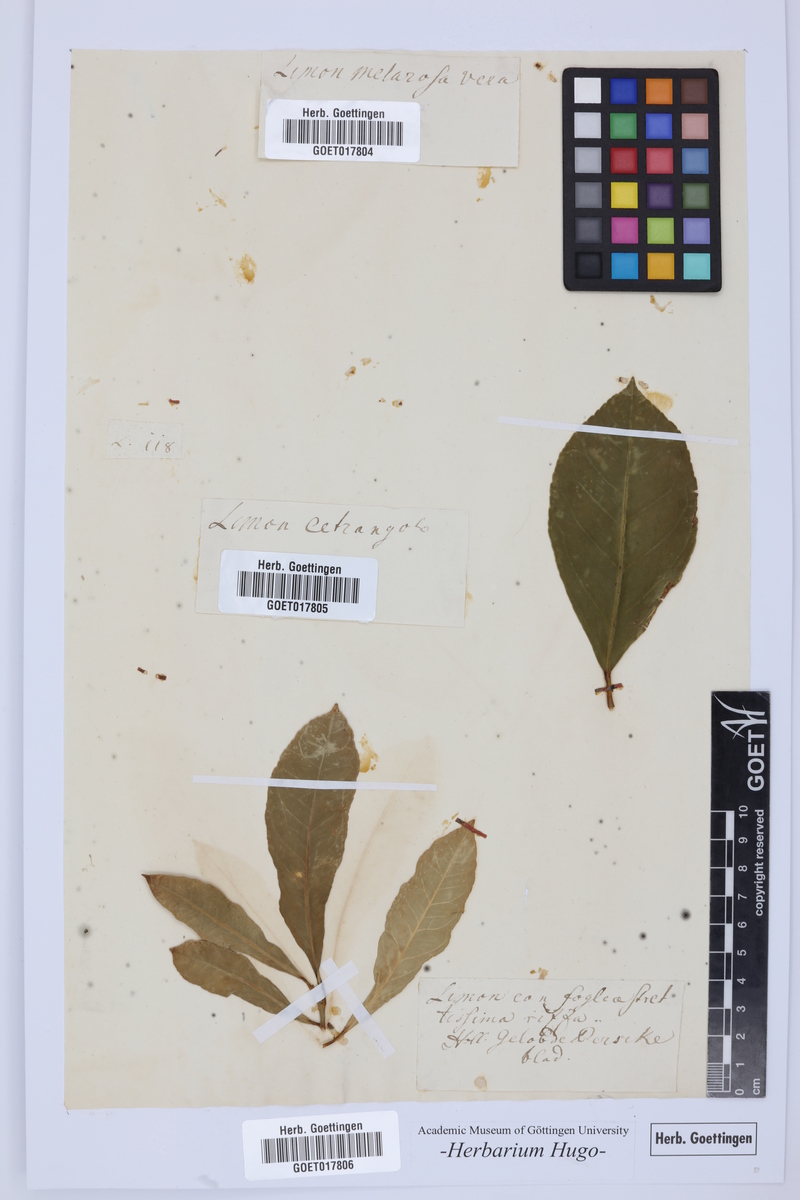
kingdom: Plantae
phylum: Tracheophyta
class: Magnoliopsida
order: Sapindales
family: Rutaceae
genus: Citrus
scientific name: Citrus
